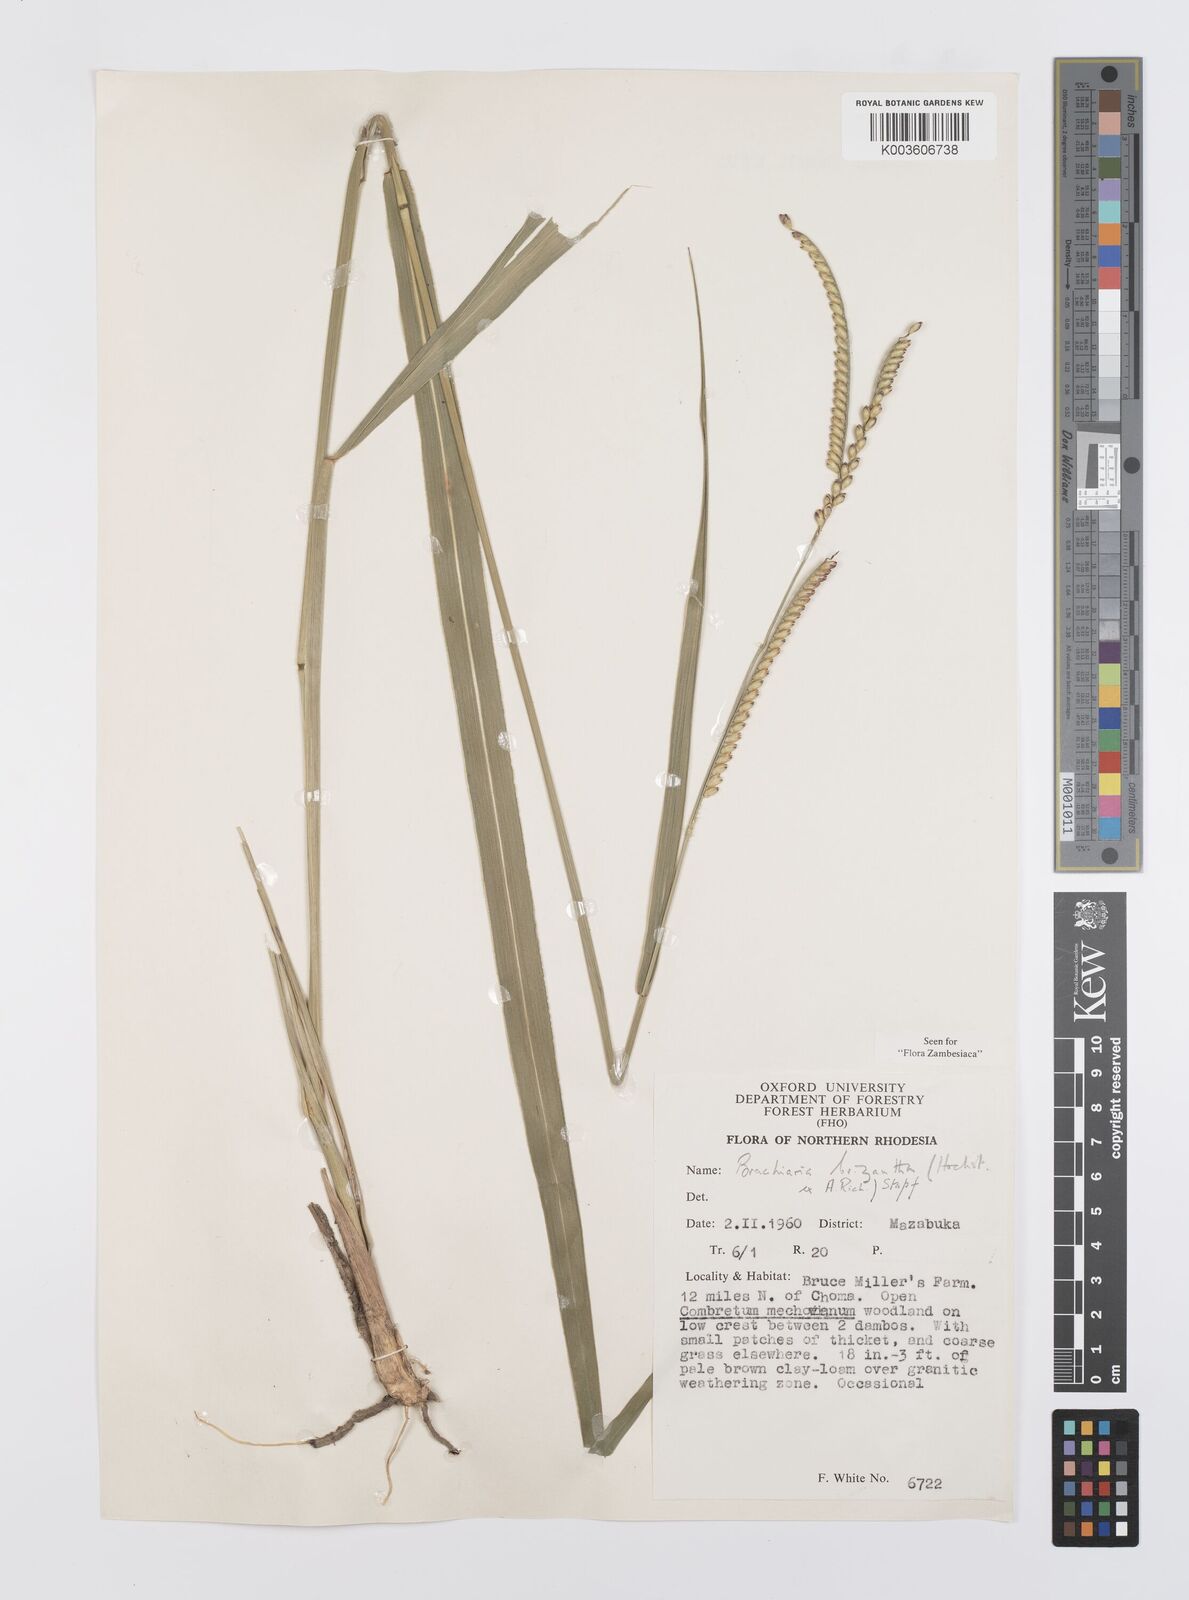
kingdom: Plantae
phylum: Tracheophyta
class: Liliopsida
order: Poales
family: Poaceae
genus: Urochloa
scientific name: Urochloa brizantha
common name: Palisade signalgrass
